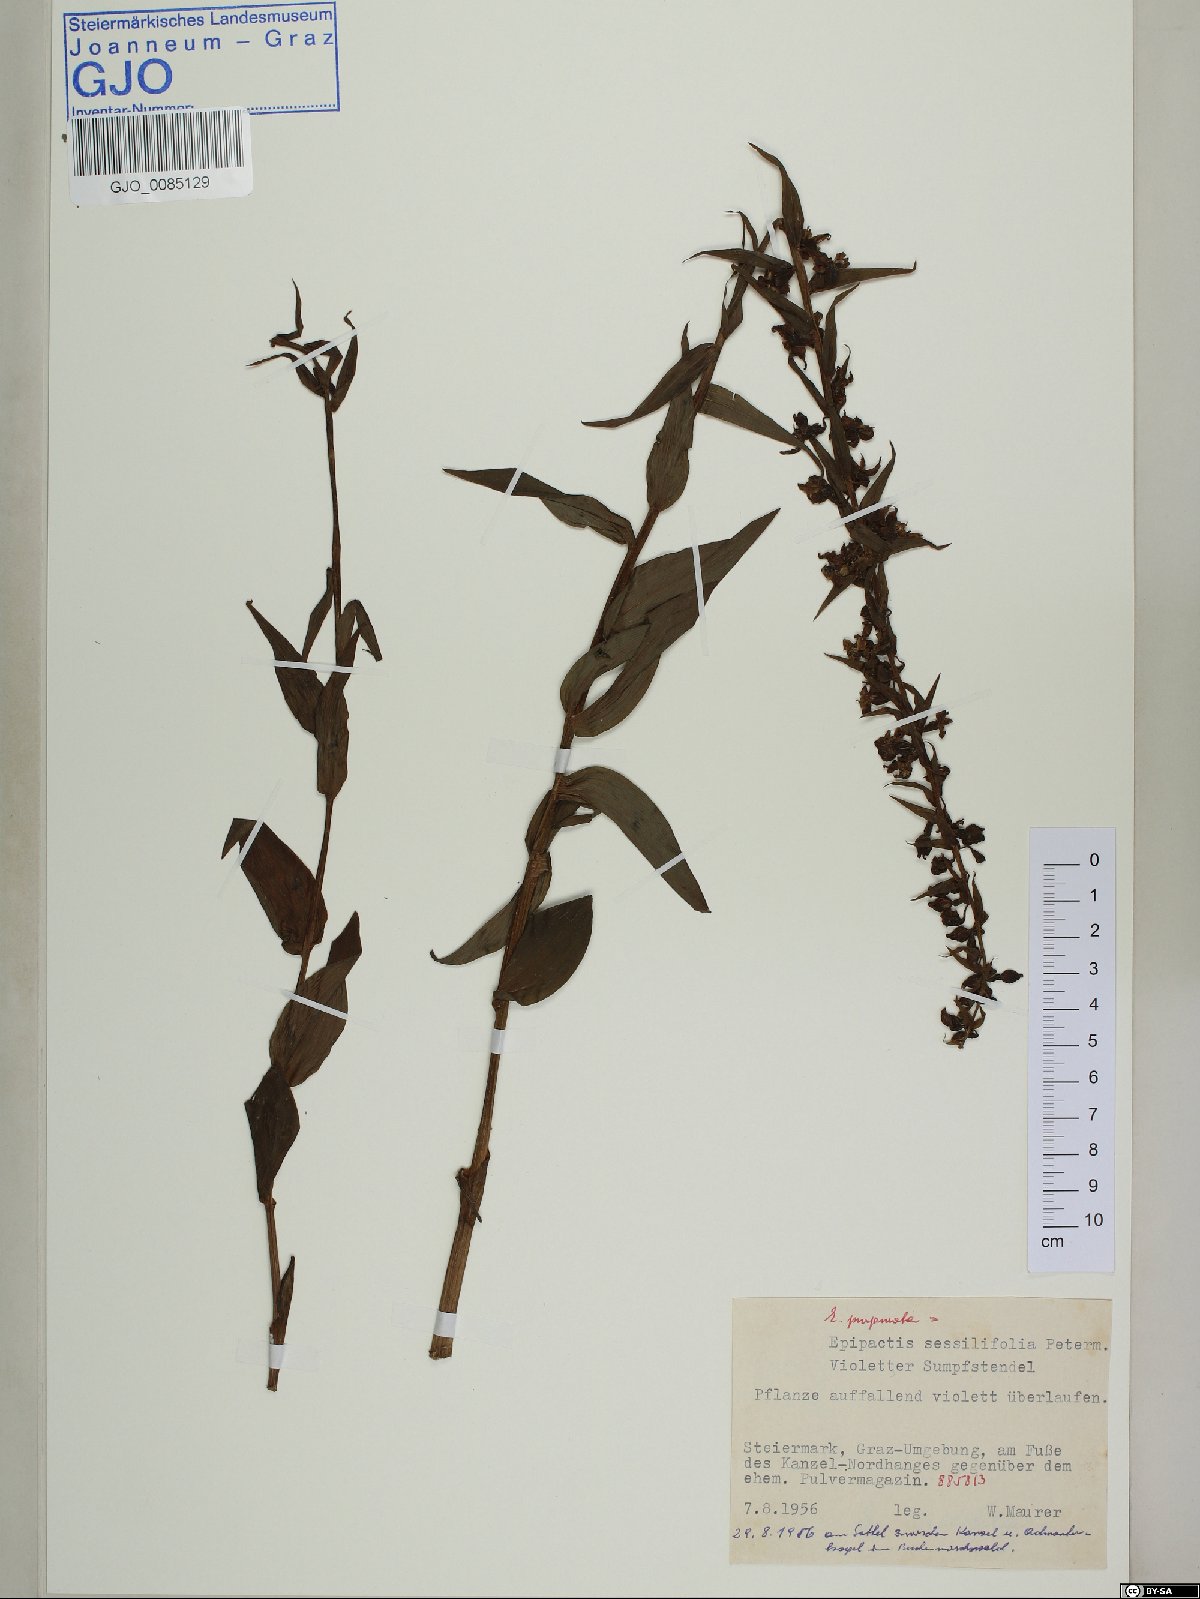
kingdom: Plantae
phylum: Tracheophyta
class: Liliopsida
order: Asparagales
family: Orchidaceae
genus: Epipactis
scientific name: Epipactis purpurata
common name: Violet helleborine
